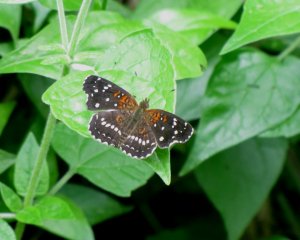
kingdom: Animalia
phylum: Arthropoda
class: Insecta
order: Lepidoptera
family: Nymphalidae
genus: Anthanassa
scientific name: Anthanassa texana
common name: Texan Crescent
